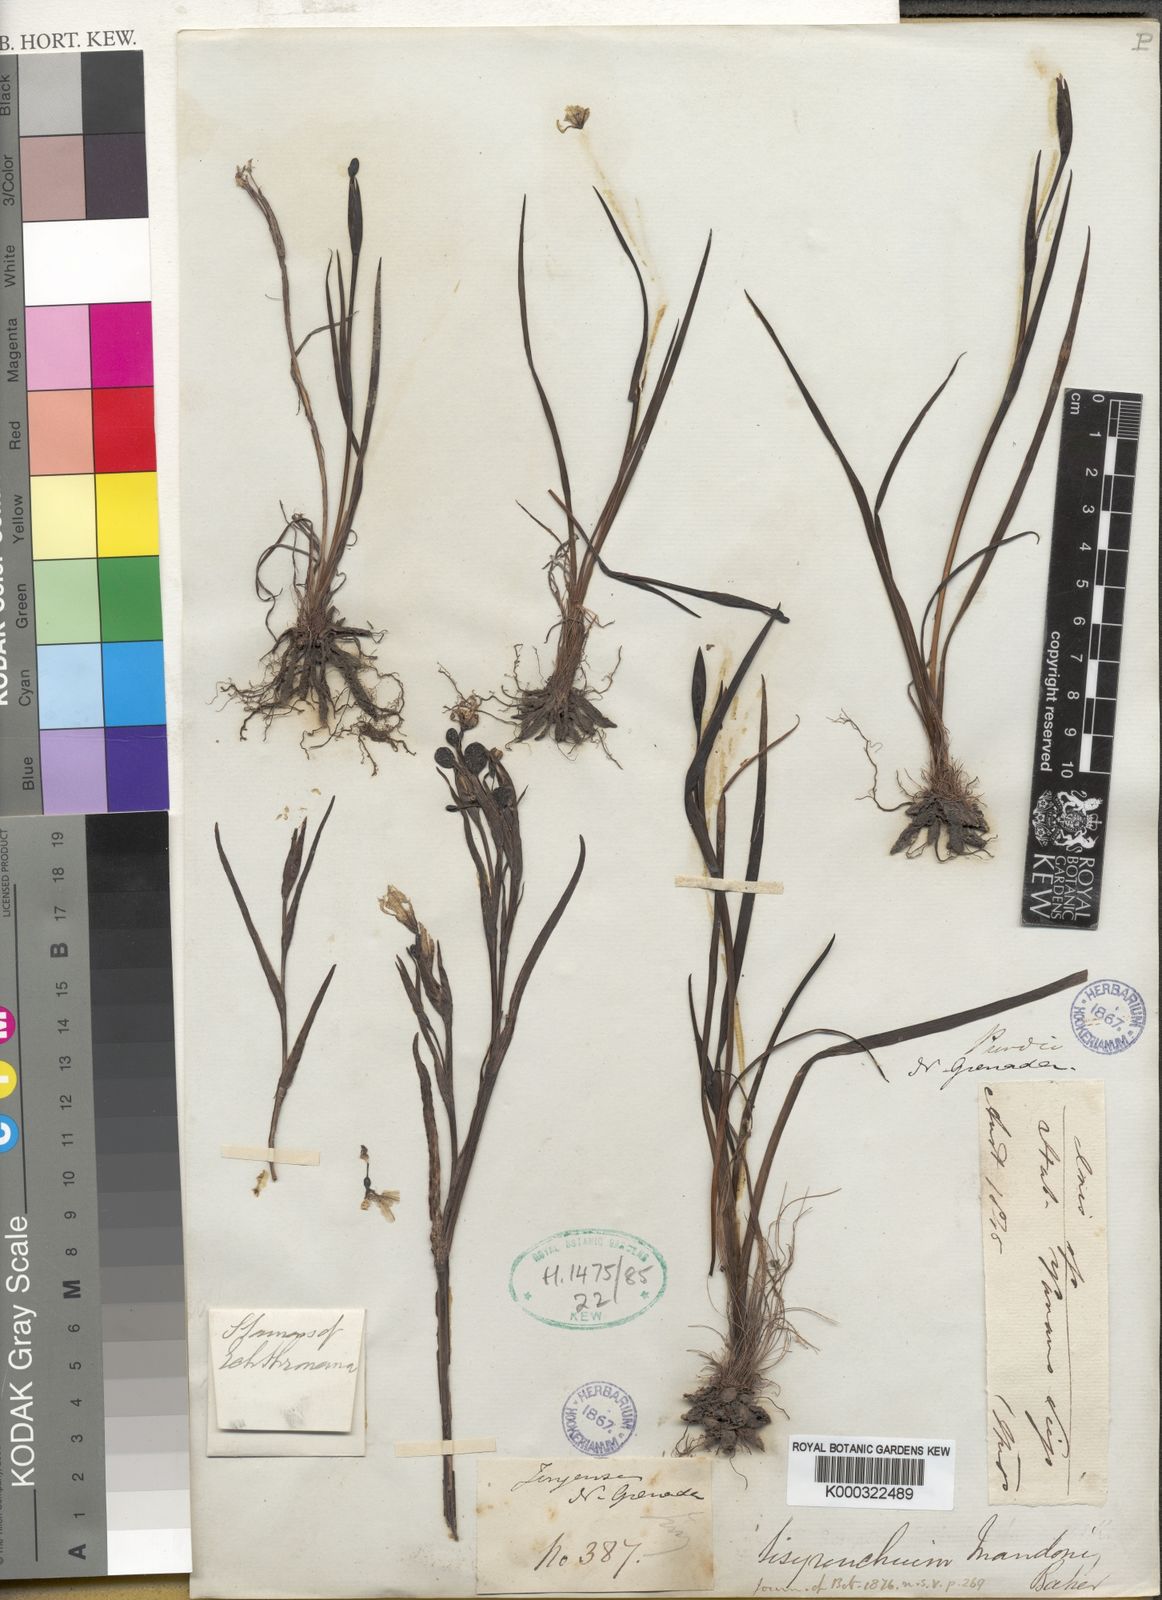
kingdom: Plantae
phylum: Tracheophyta
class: Liliopsida
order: Asparagales
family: Iridaceae
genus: Sisyrinchium
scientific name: Sisyrinchium mandonii
